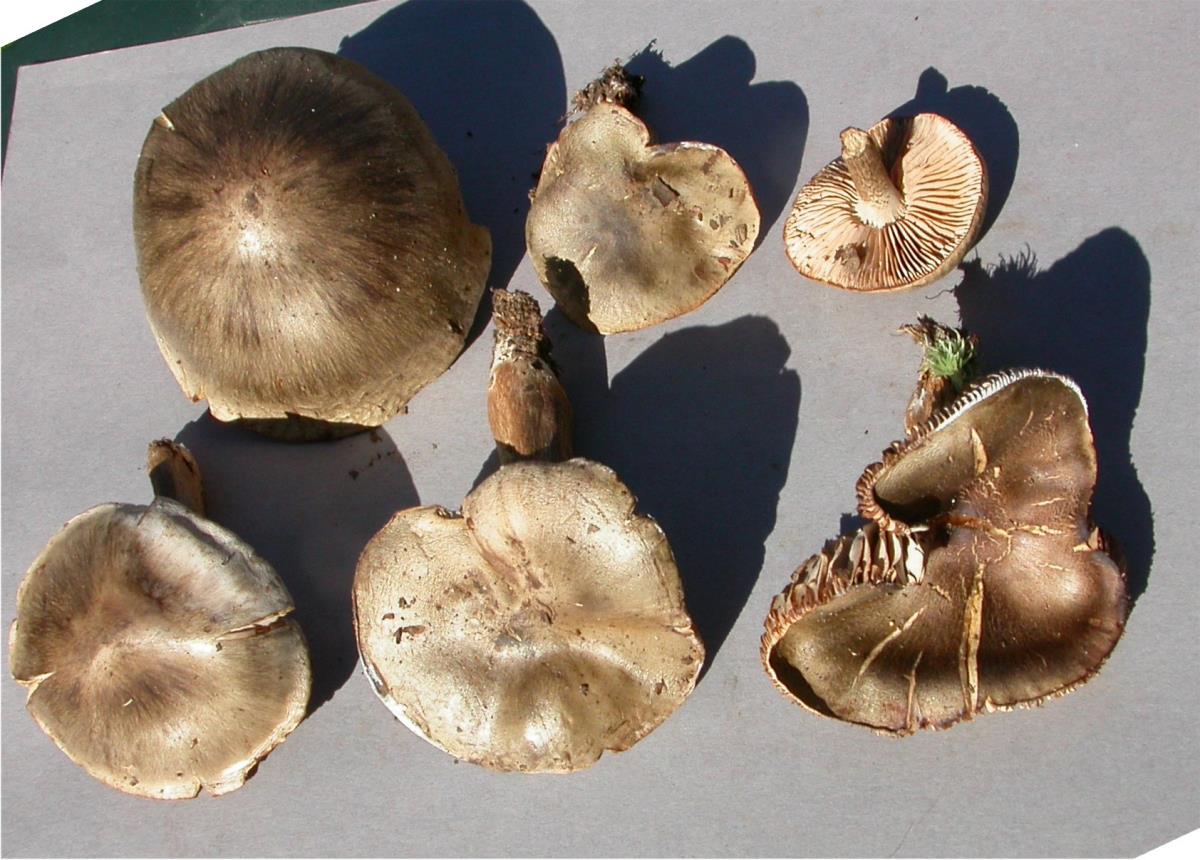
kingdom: Fungi
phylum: Basidiomycota
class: Agaricomycetes
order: Agaricales
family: Tricholomataceae
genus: Tricholoma
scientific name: Tricholoma elegans
